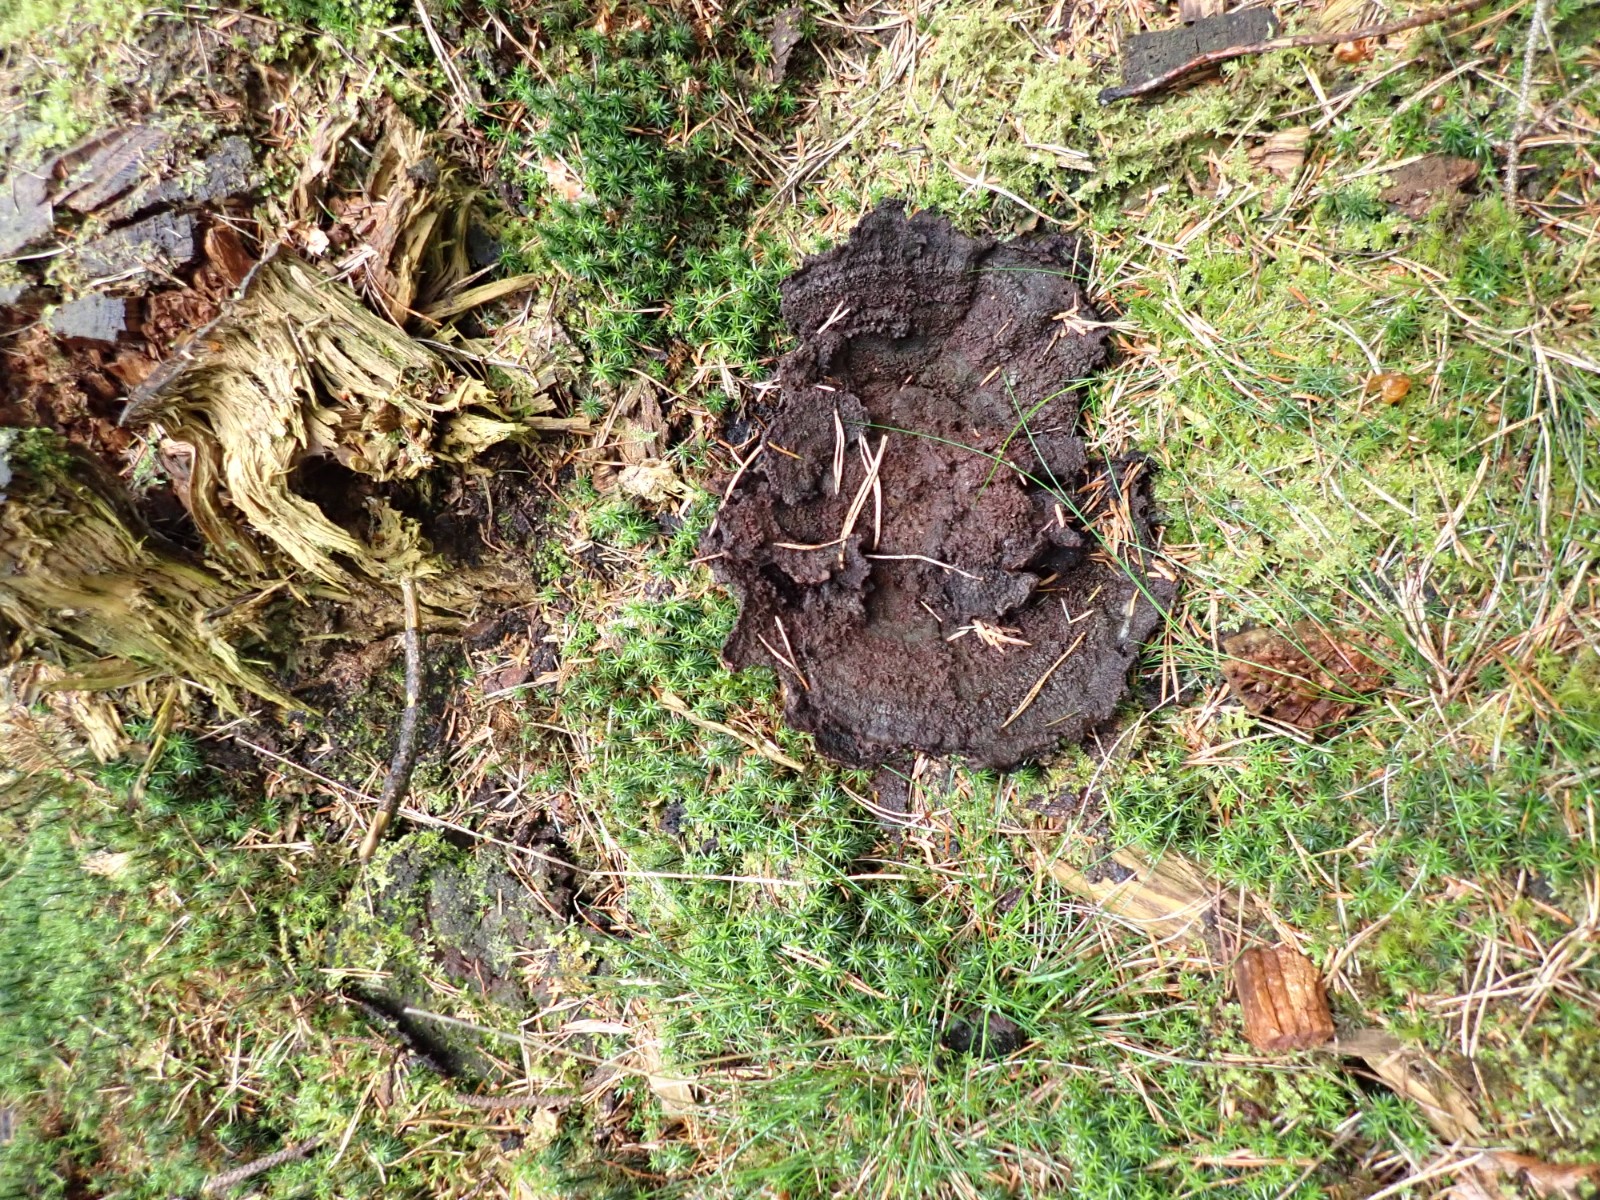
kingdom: Fungi
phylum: Basidiomycota
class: Agaricomycetes
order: Polyporales
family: Laetiporaceae
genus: Phaeolus
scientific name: Phaeolus schweinitzii
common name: brunporesvamp
